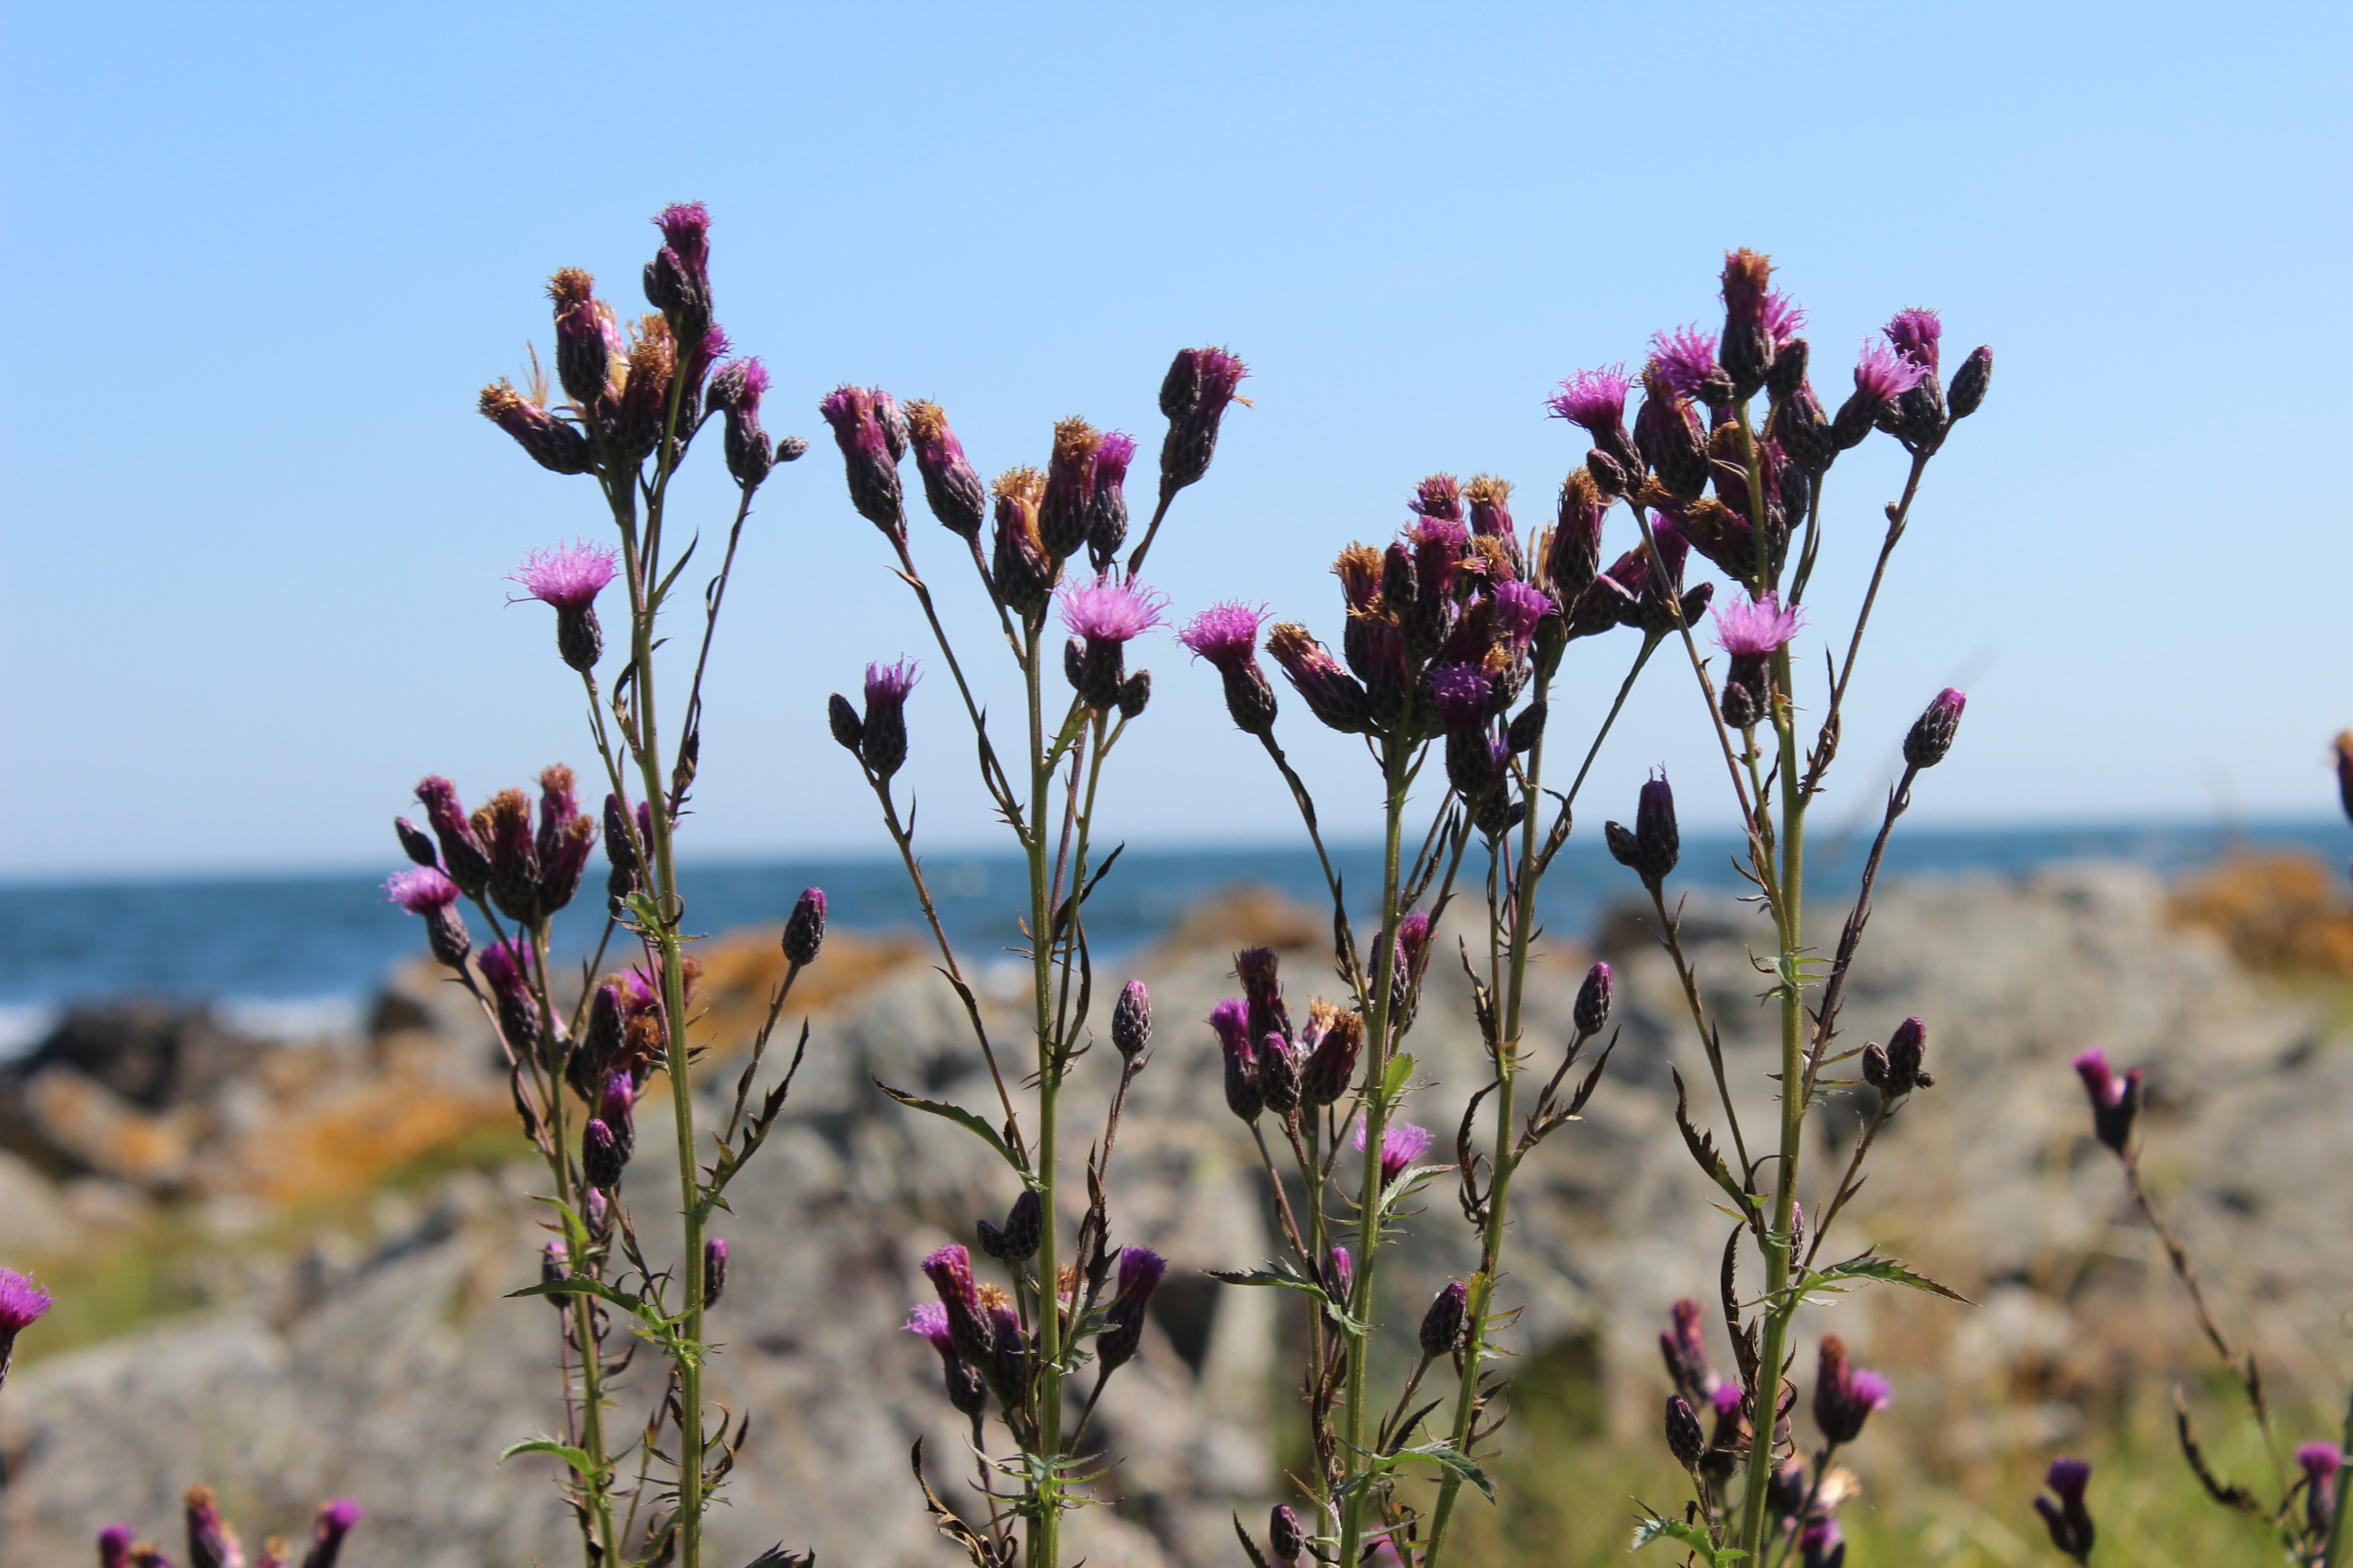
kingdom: Plantae
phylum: Tracheophyta
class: Magnoliopsida
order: Asterales
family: Asteraceae
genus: Serratula
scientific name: Serratula tinctoria
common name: Eng-skær
